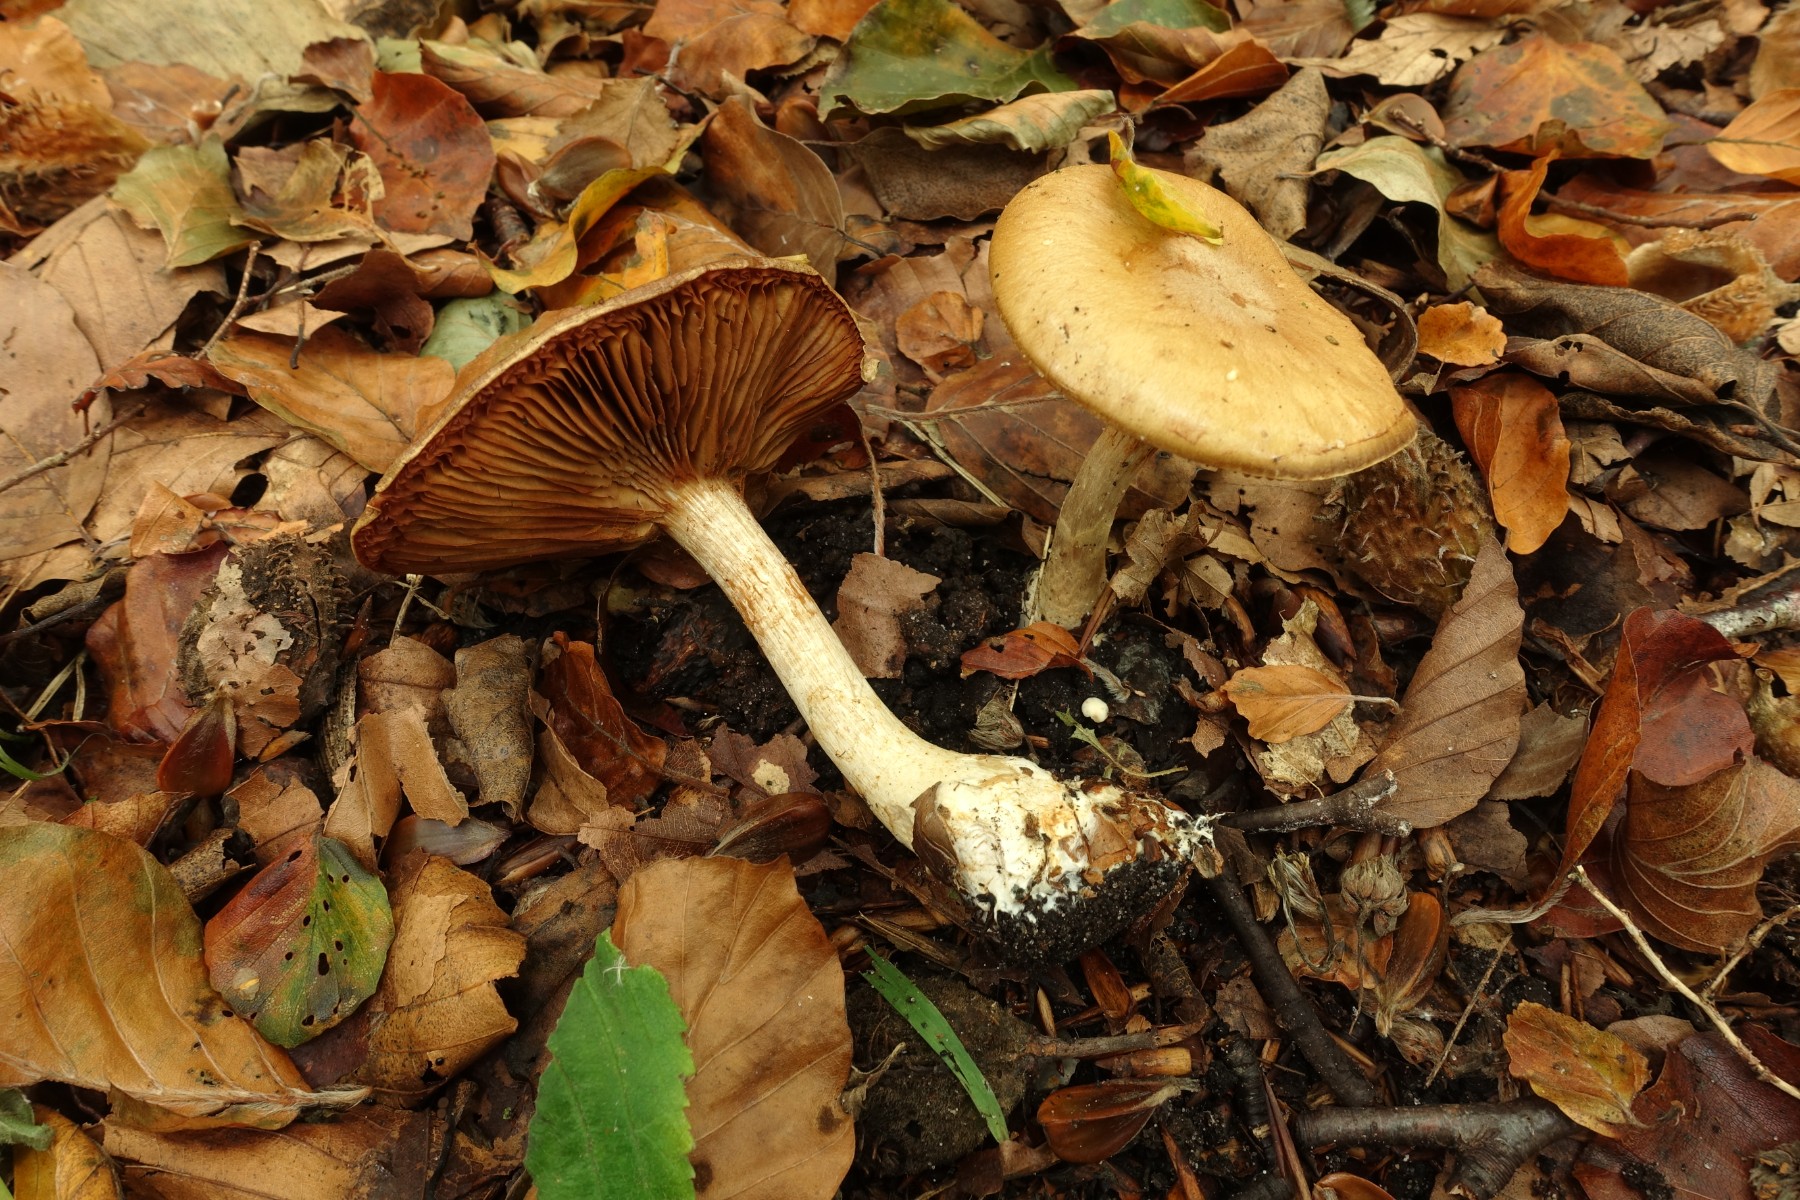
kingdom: Fungi
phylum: Basidiomycota
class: Agaricomycetes
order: Agaricales
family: Cortinariaceae
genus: Cortinarius
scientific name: Cortinarius
